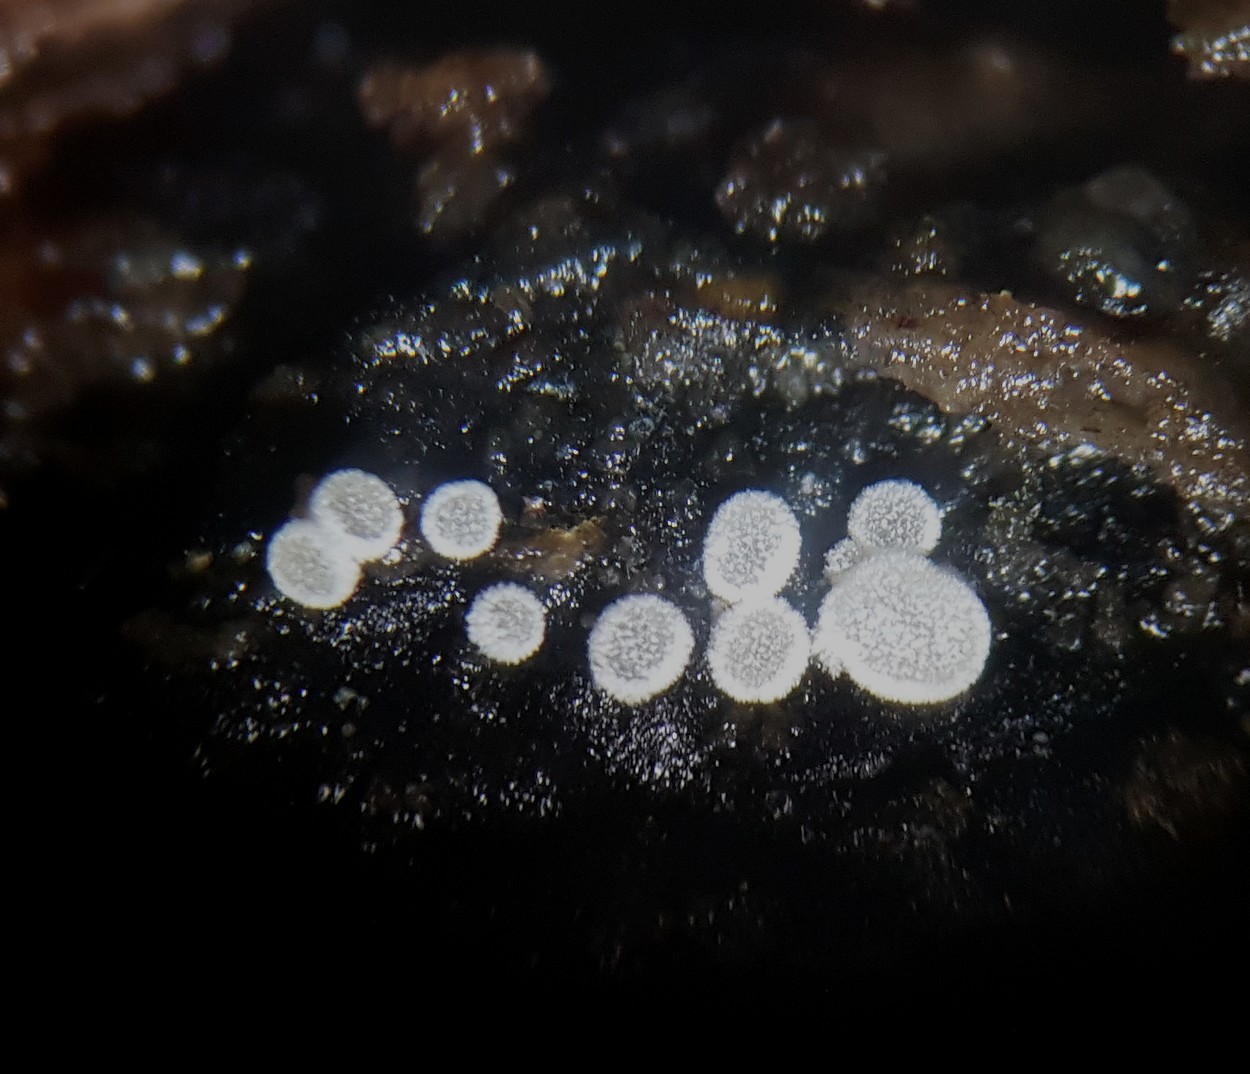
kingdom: Fungi
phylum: Ascomycota
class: Leotiomycetes
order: Helotiales
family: Hyaloscyphaceae
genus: Polydesmia
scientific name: Polydesmia pruinosa
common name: dunskive
